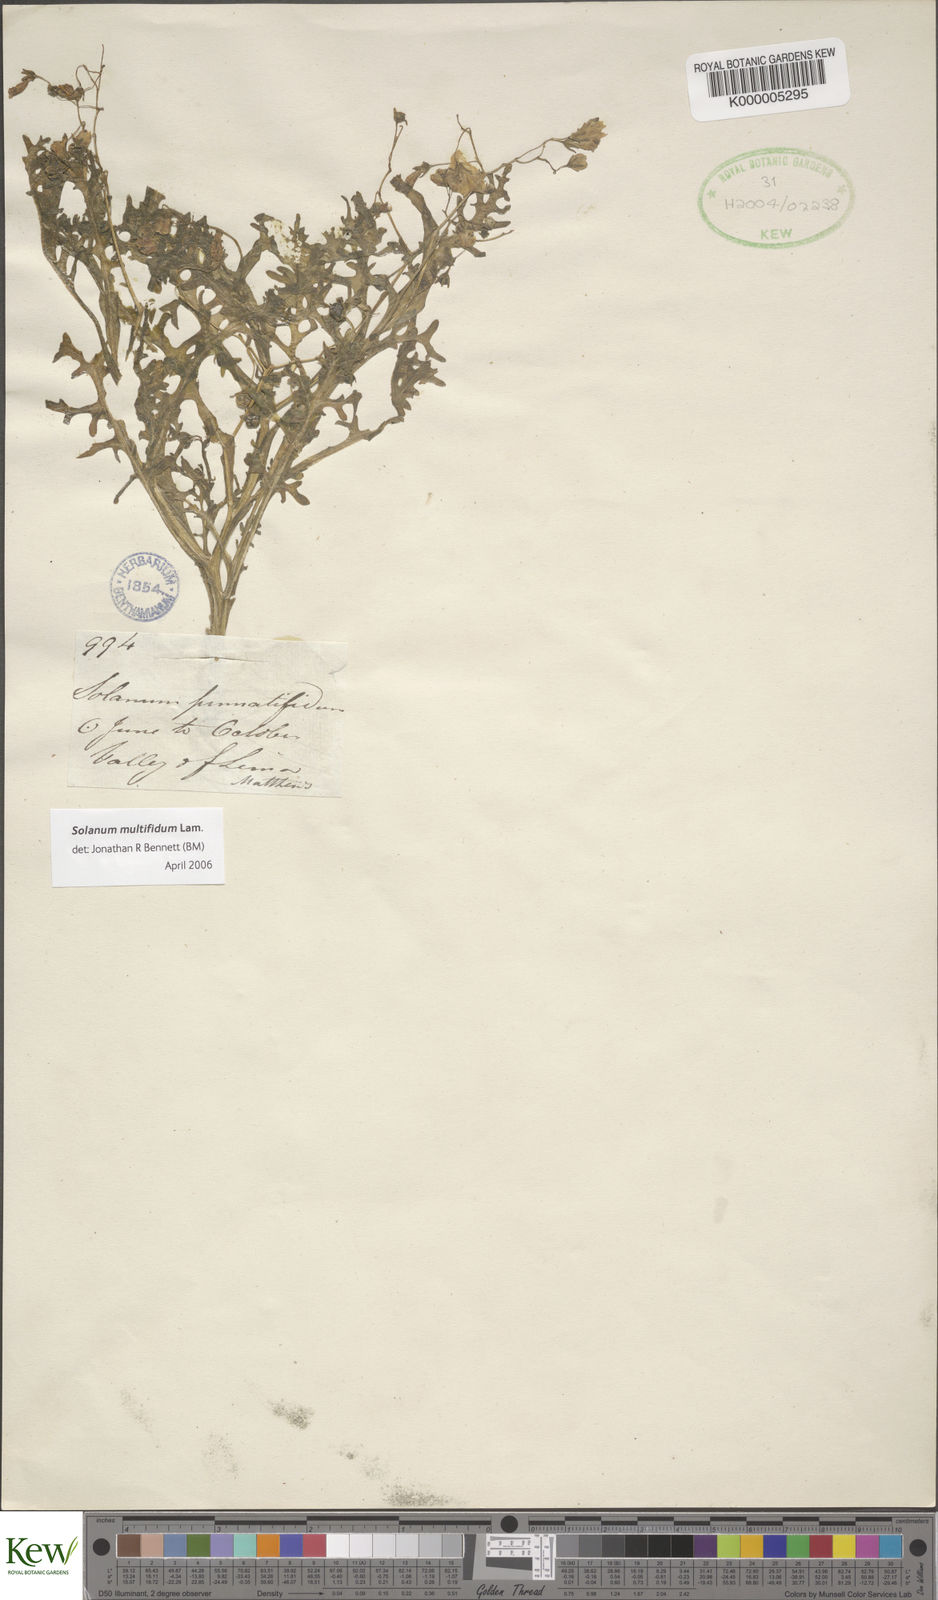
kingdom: Plantae
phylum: Tracheophyta
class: Magnoliopsida
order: Solanales
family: Solanaceae
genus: Solanum
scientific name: Solanum multifidum
